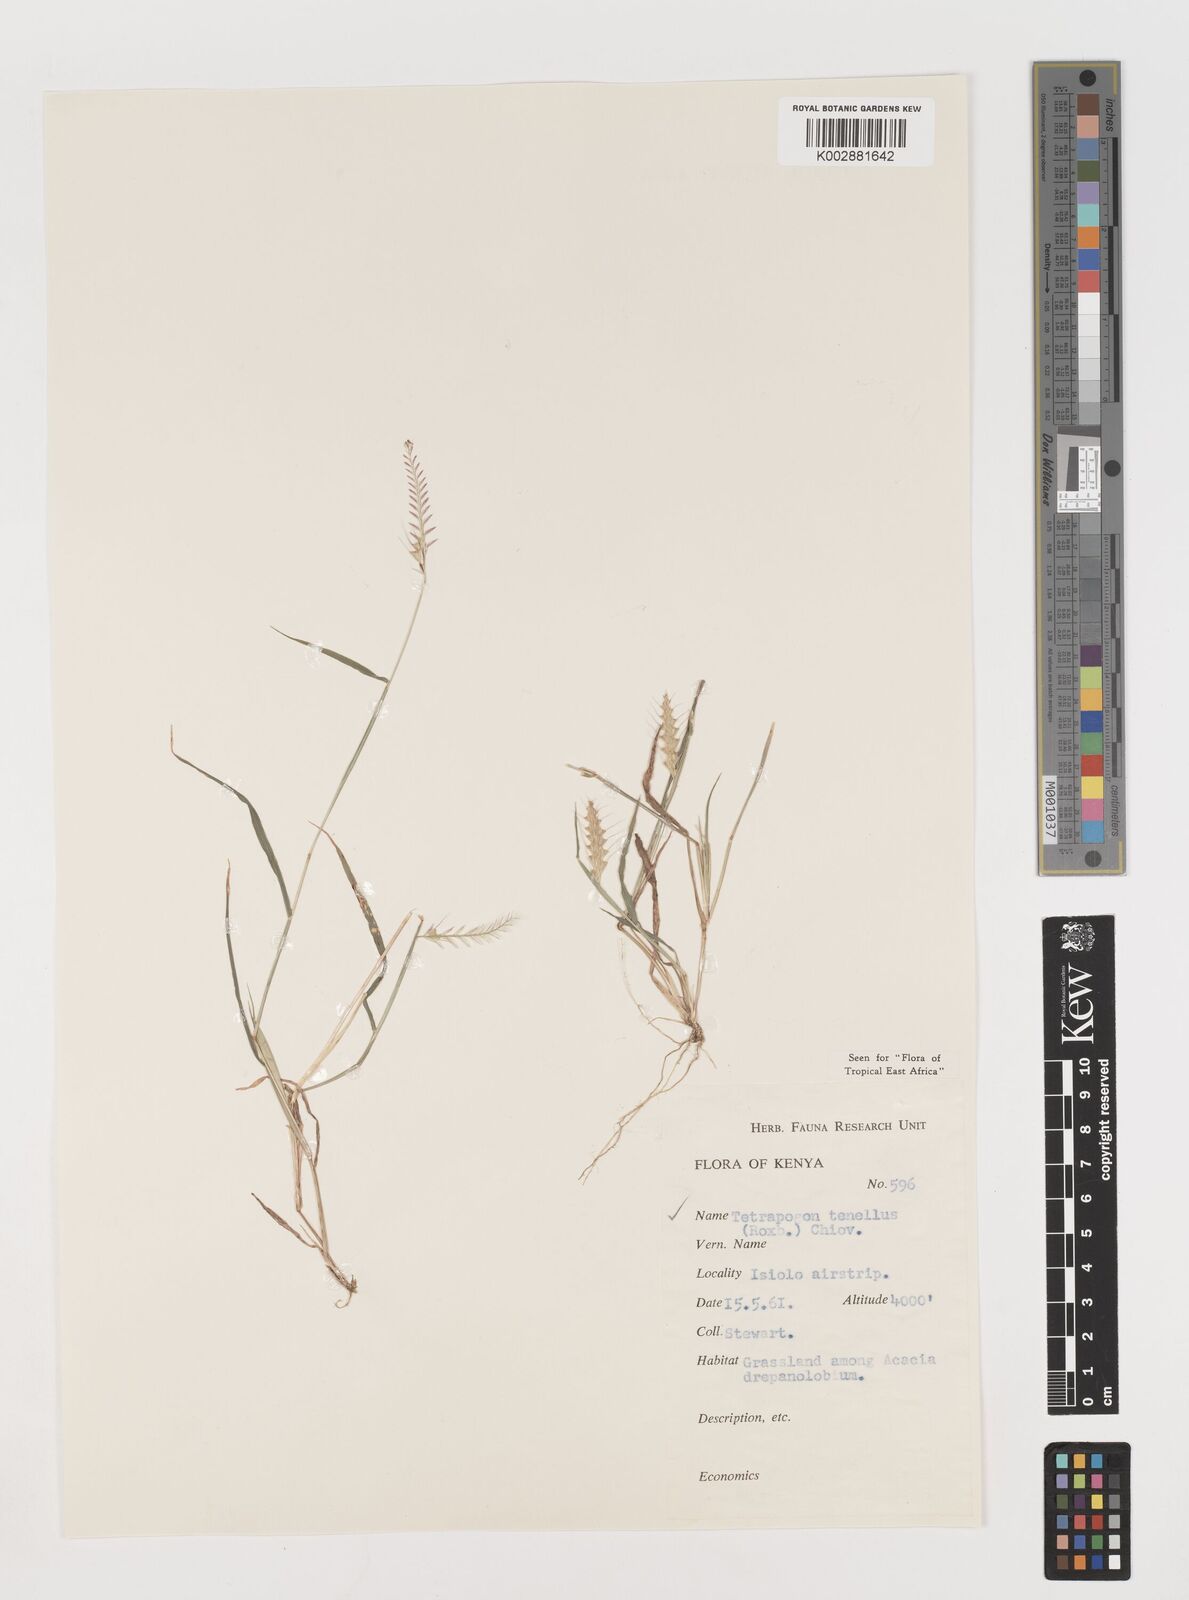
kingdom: Plantae
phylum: Tracheophyta
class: Liliopsida
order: Poales
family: Poaceae
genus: Tetrapogon
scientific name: Tetrapogon tenellus
